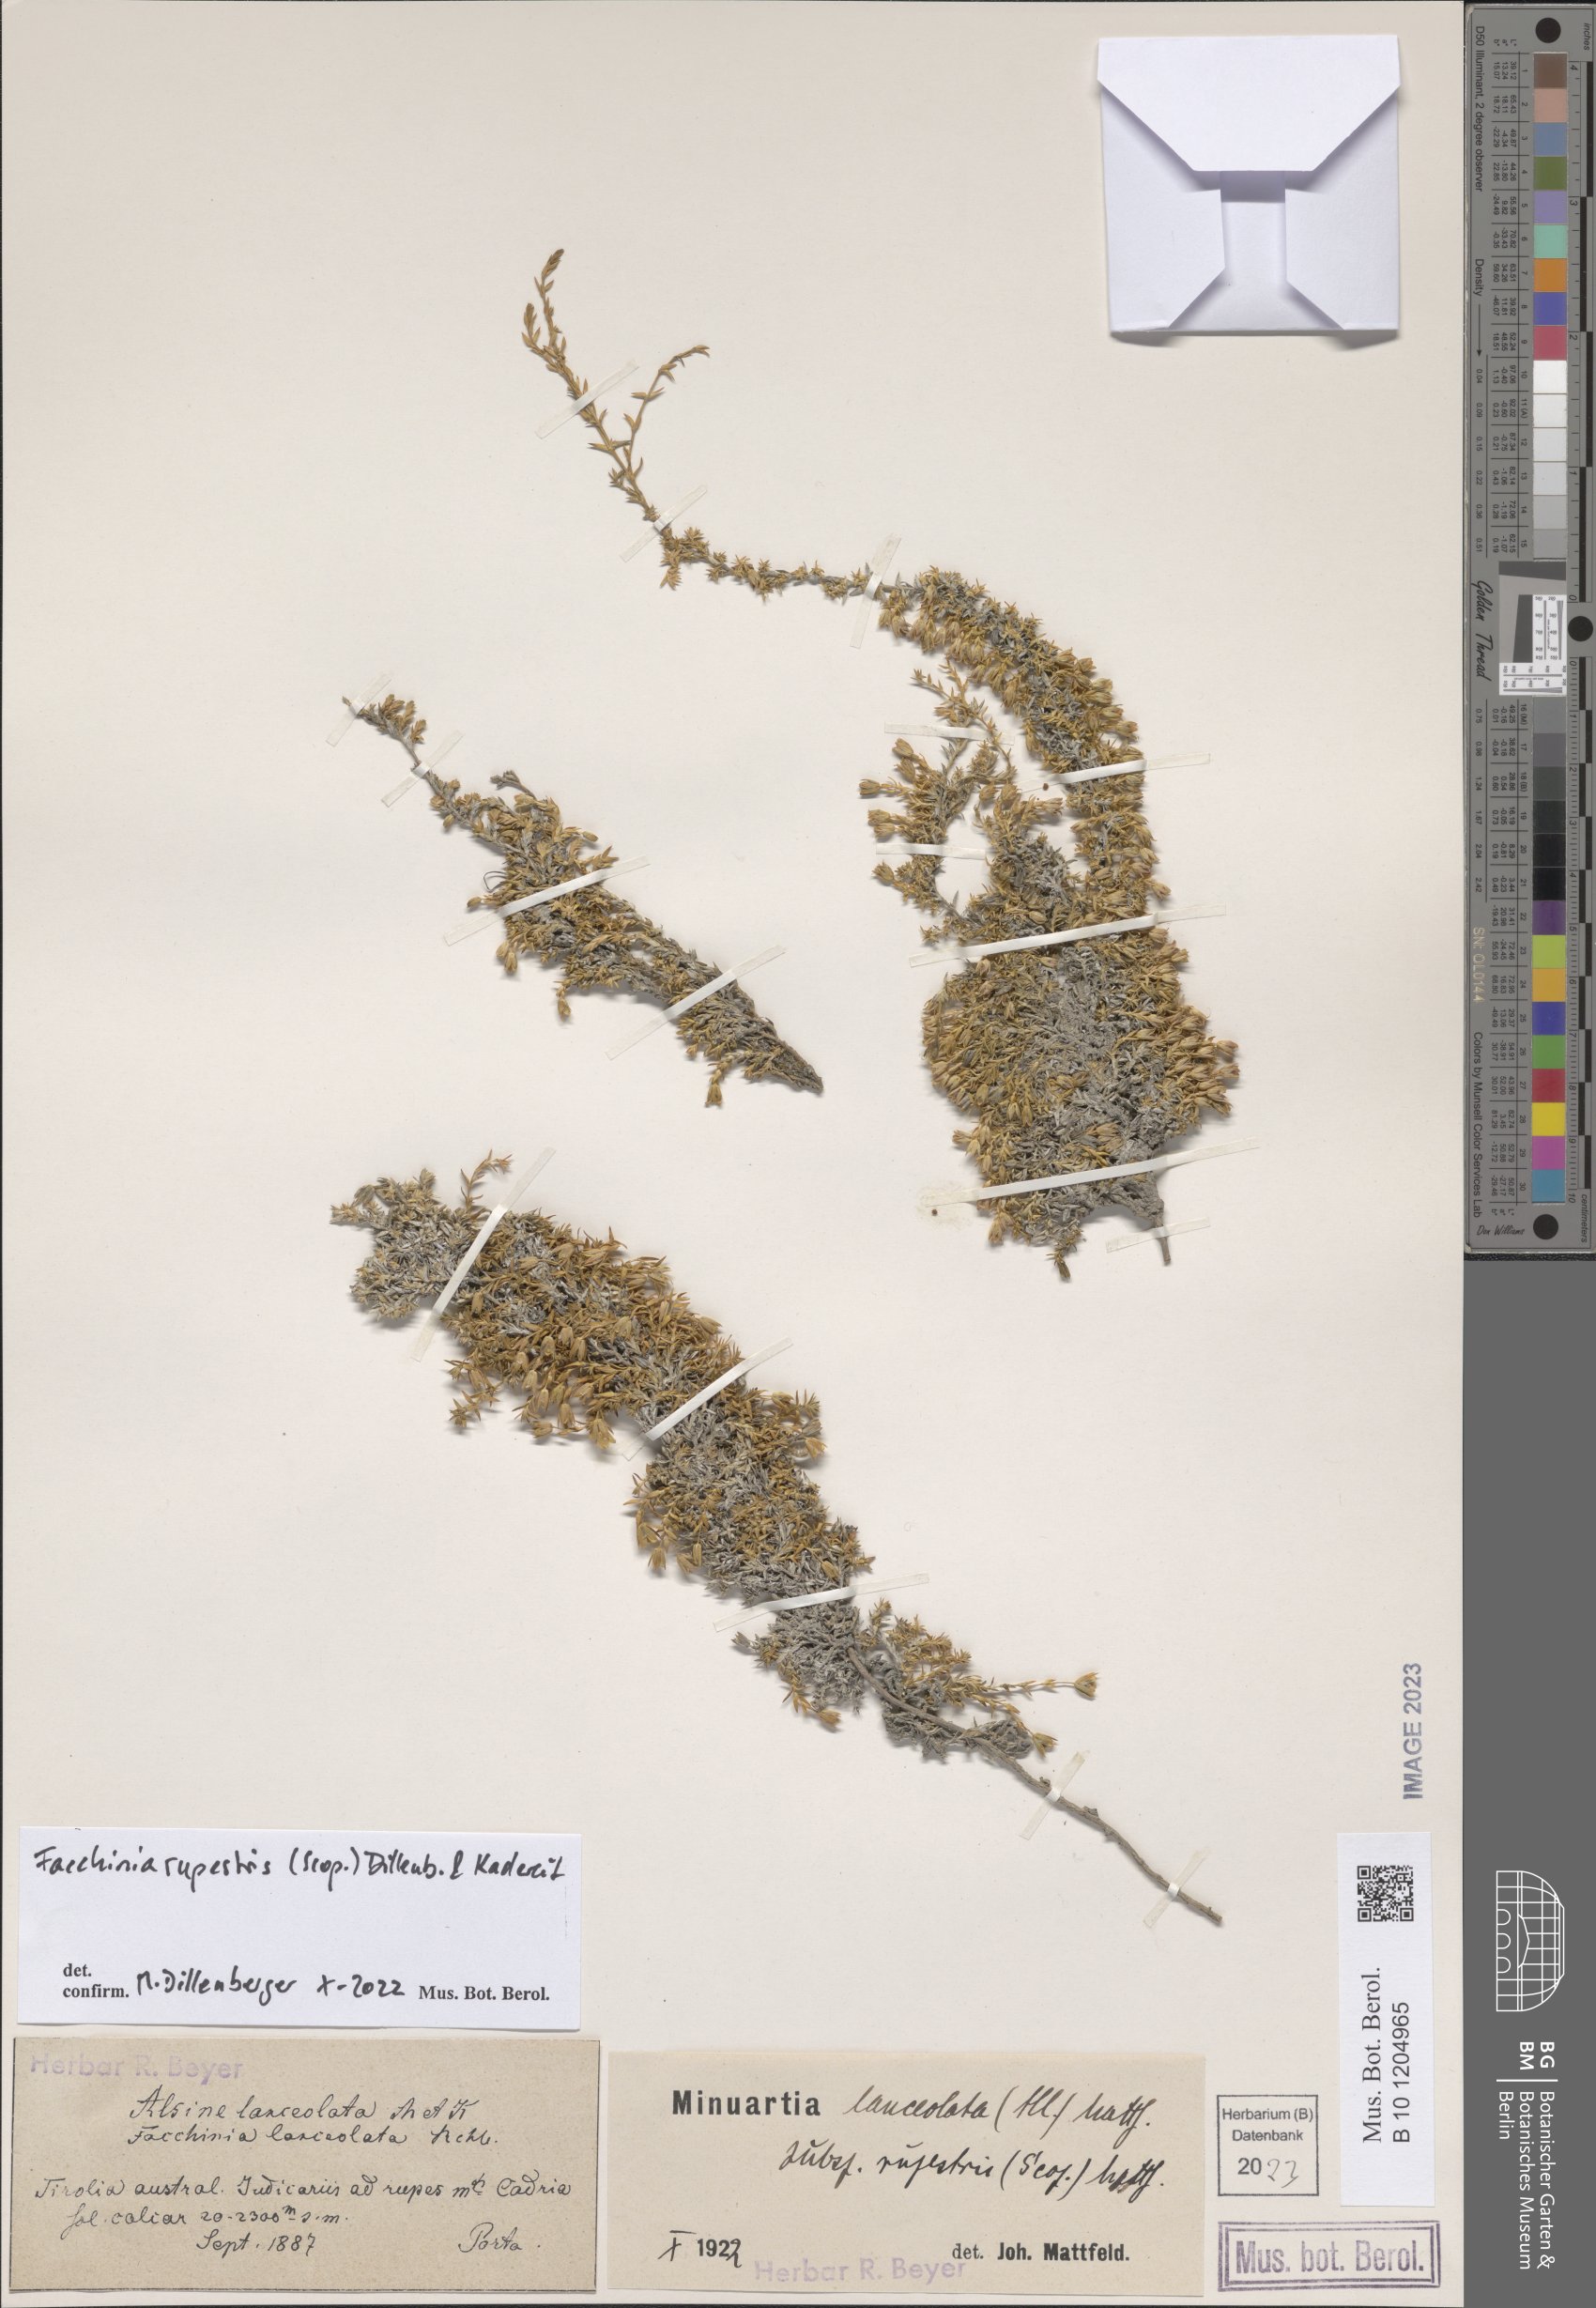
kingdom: Plantae
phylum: Tracheophyta
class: Magnoliopsida
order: Caryophyllales
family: Caryophyllaceae
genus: Facchinia
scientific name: Facchinia rupestris
